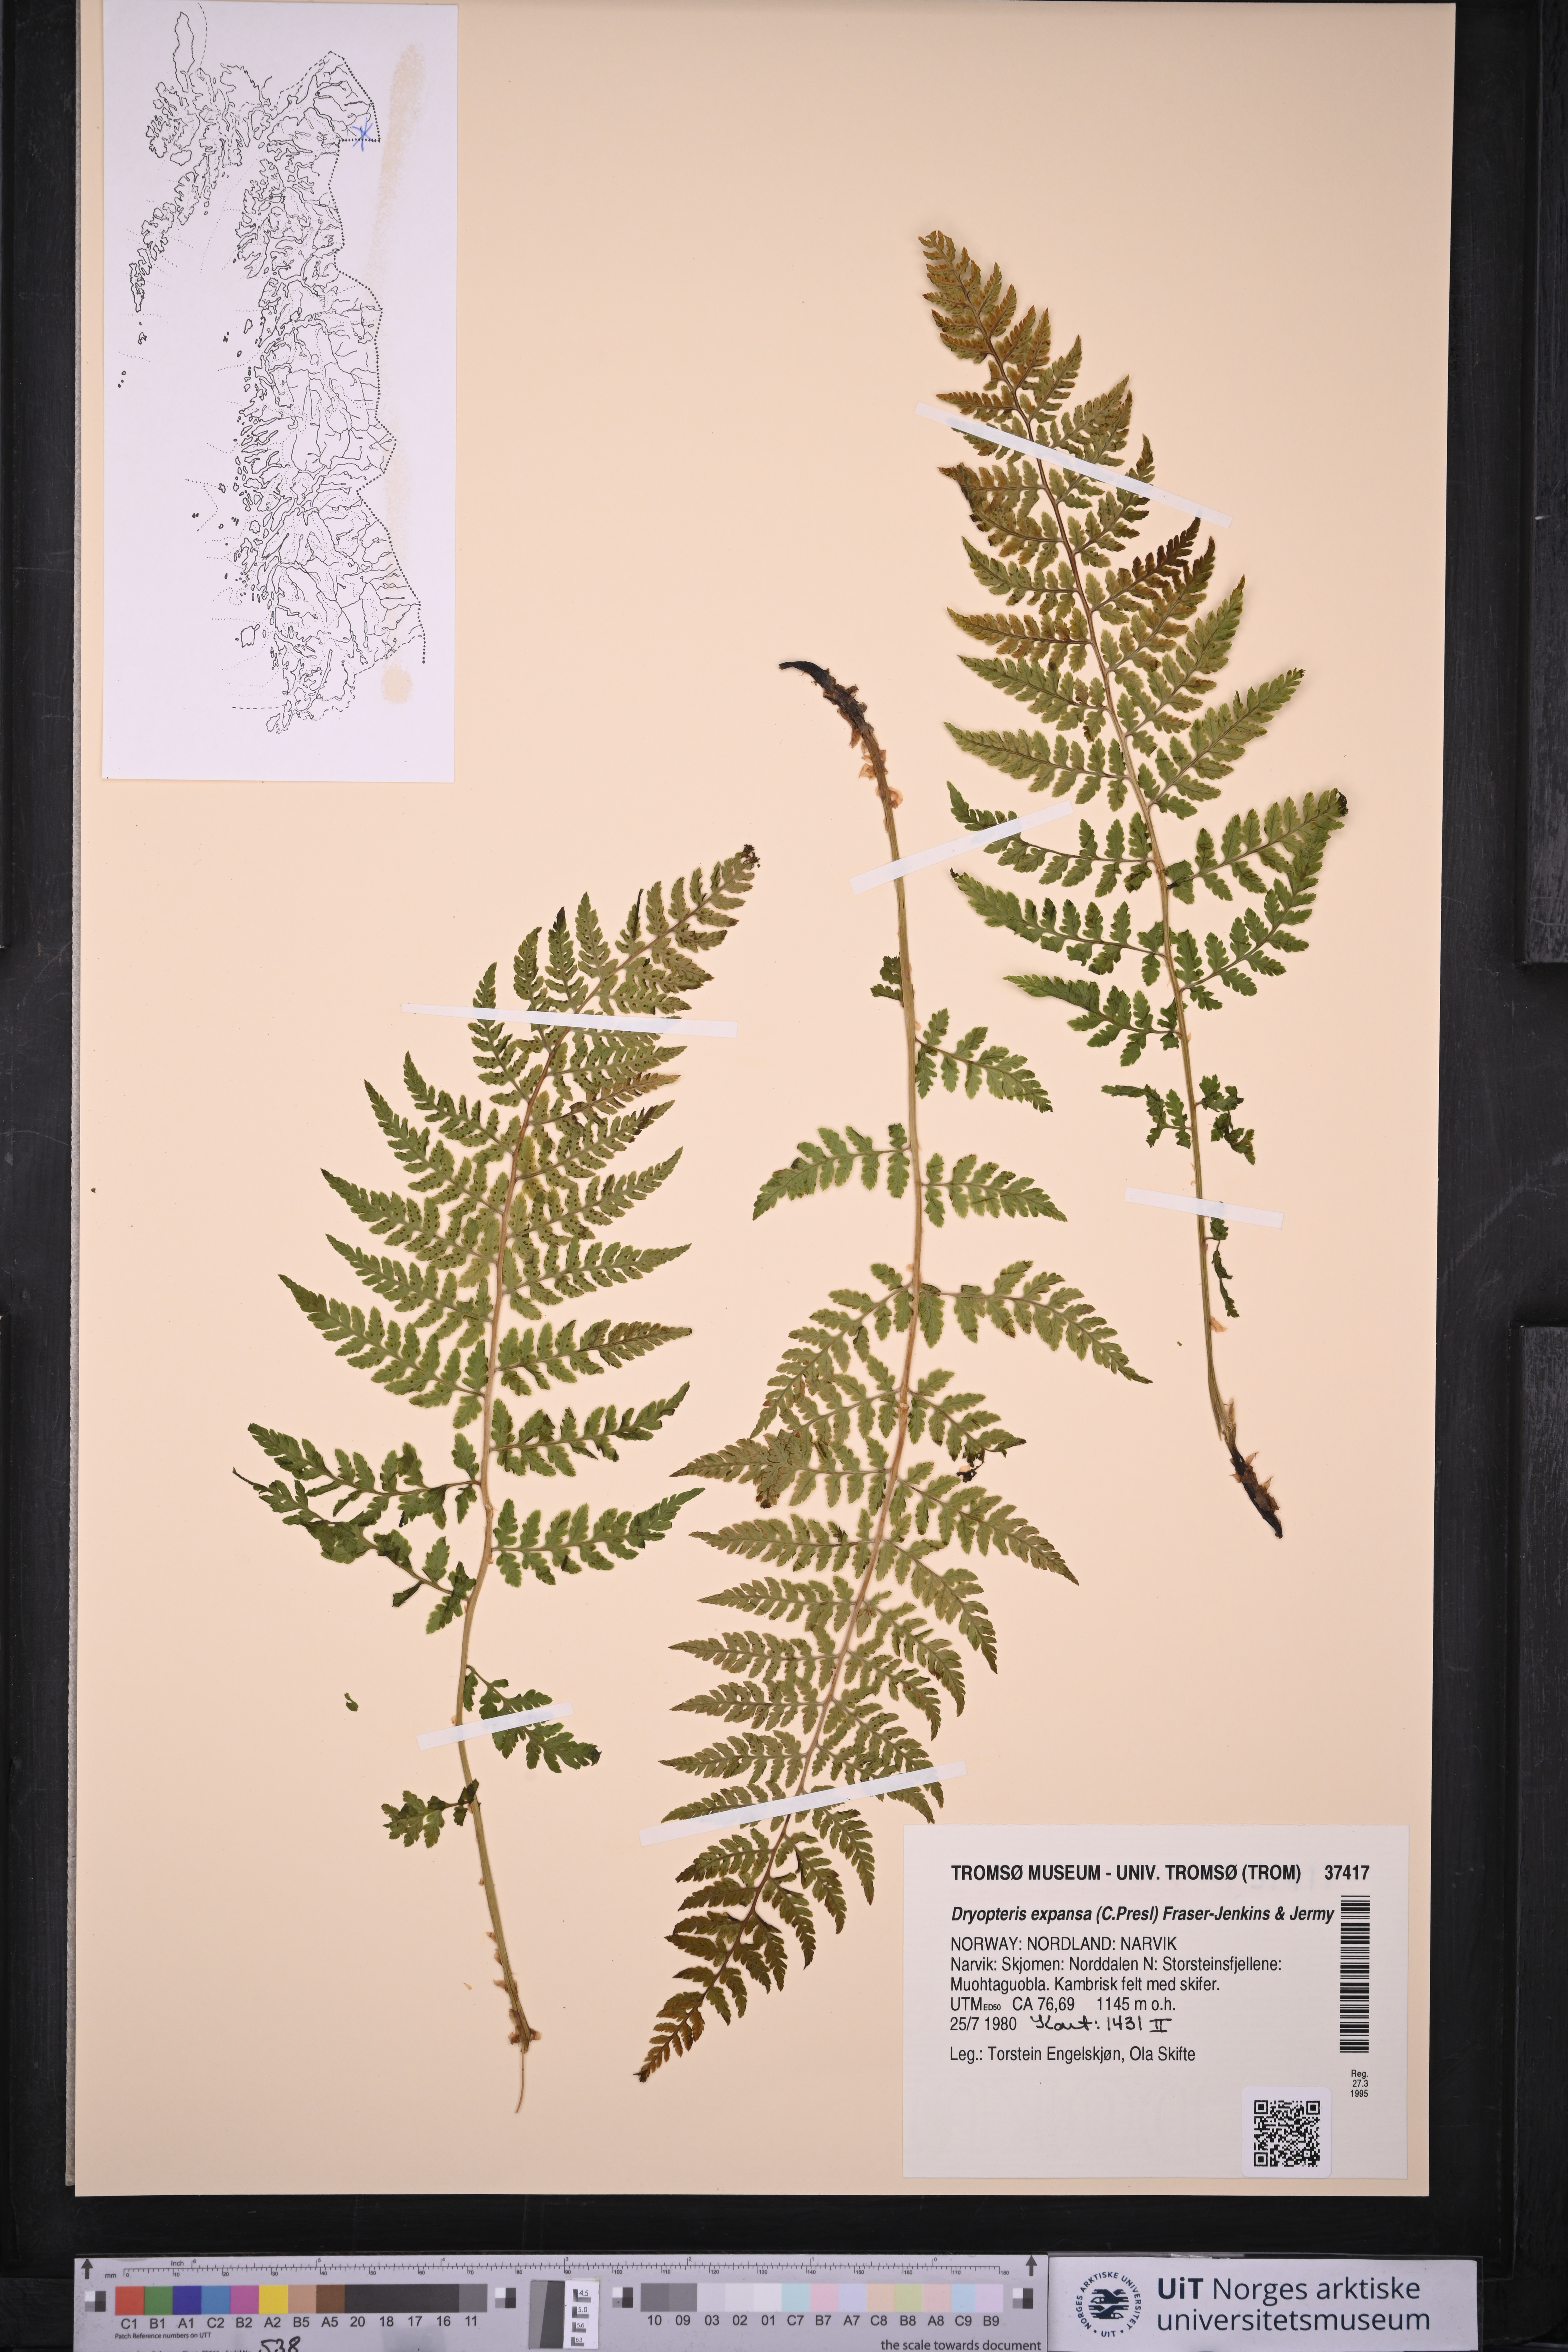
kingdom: Plantae
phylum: Tracheophyta
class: Polypodiopsida
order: Polypodiales
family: Dryopteridaceae
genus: Dryopteris
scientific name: Dryopteris expansa
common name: Northern buckler fern
